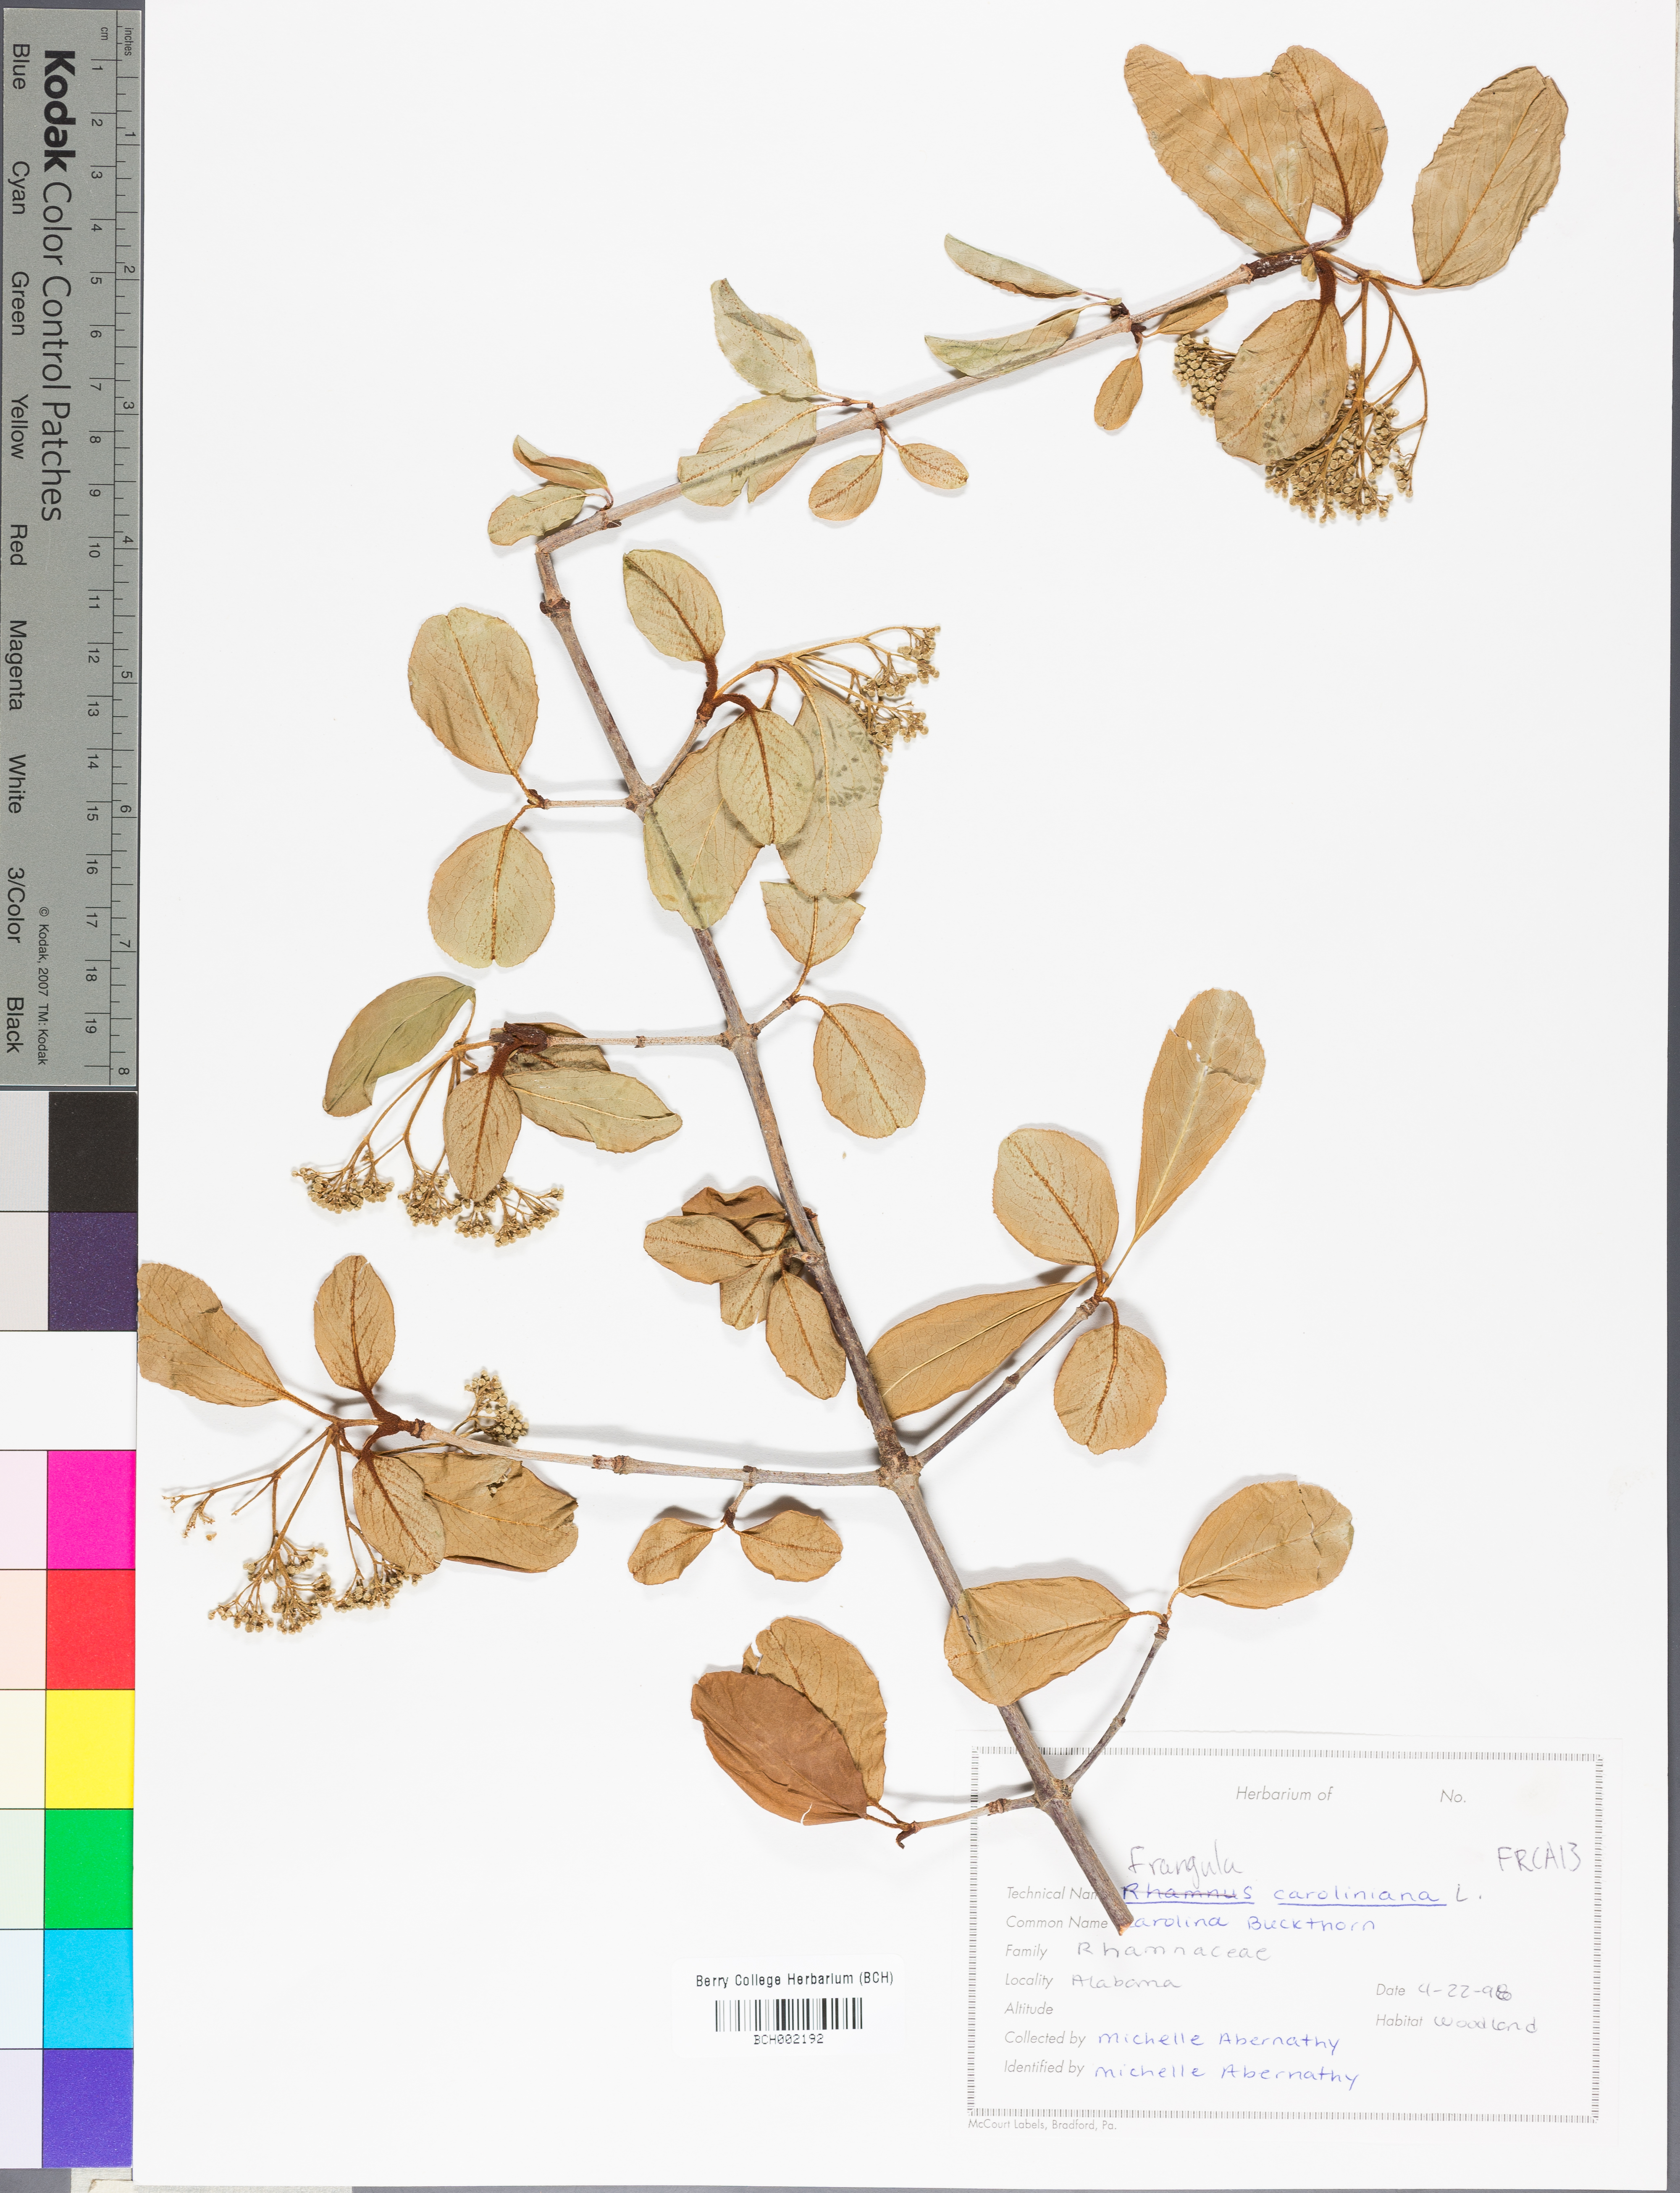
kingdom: Plantae
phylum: Tracheophyta
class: Magnoliopsida
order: Rosales
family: Rhamnaceae
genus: Frangula
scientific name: Frangula caroliniana
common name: Carolina buckthorn
